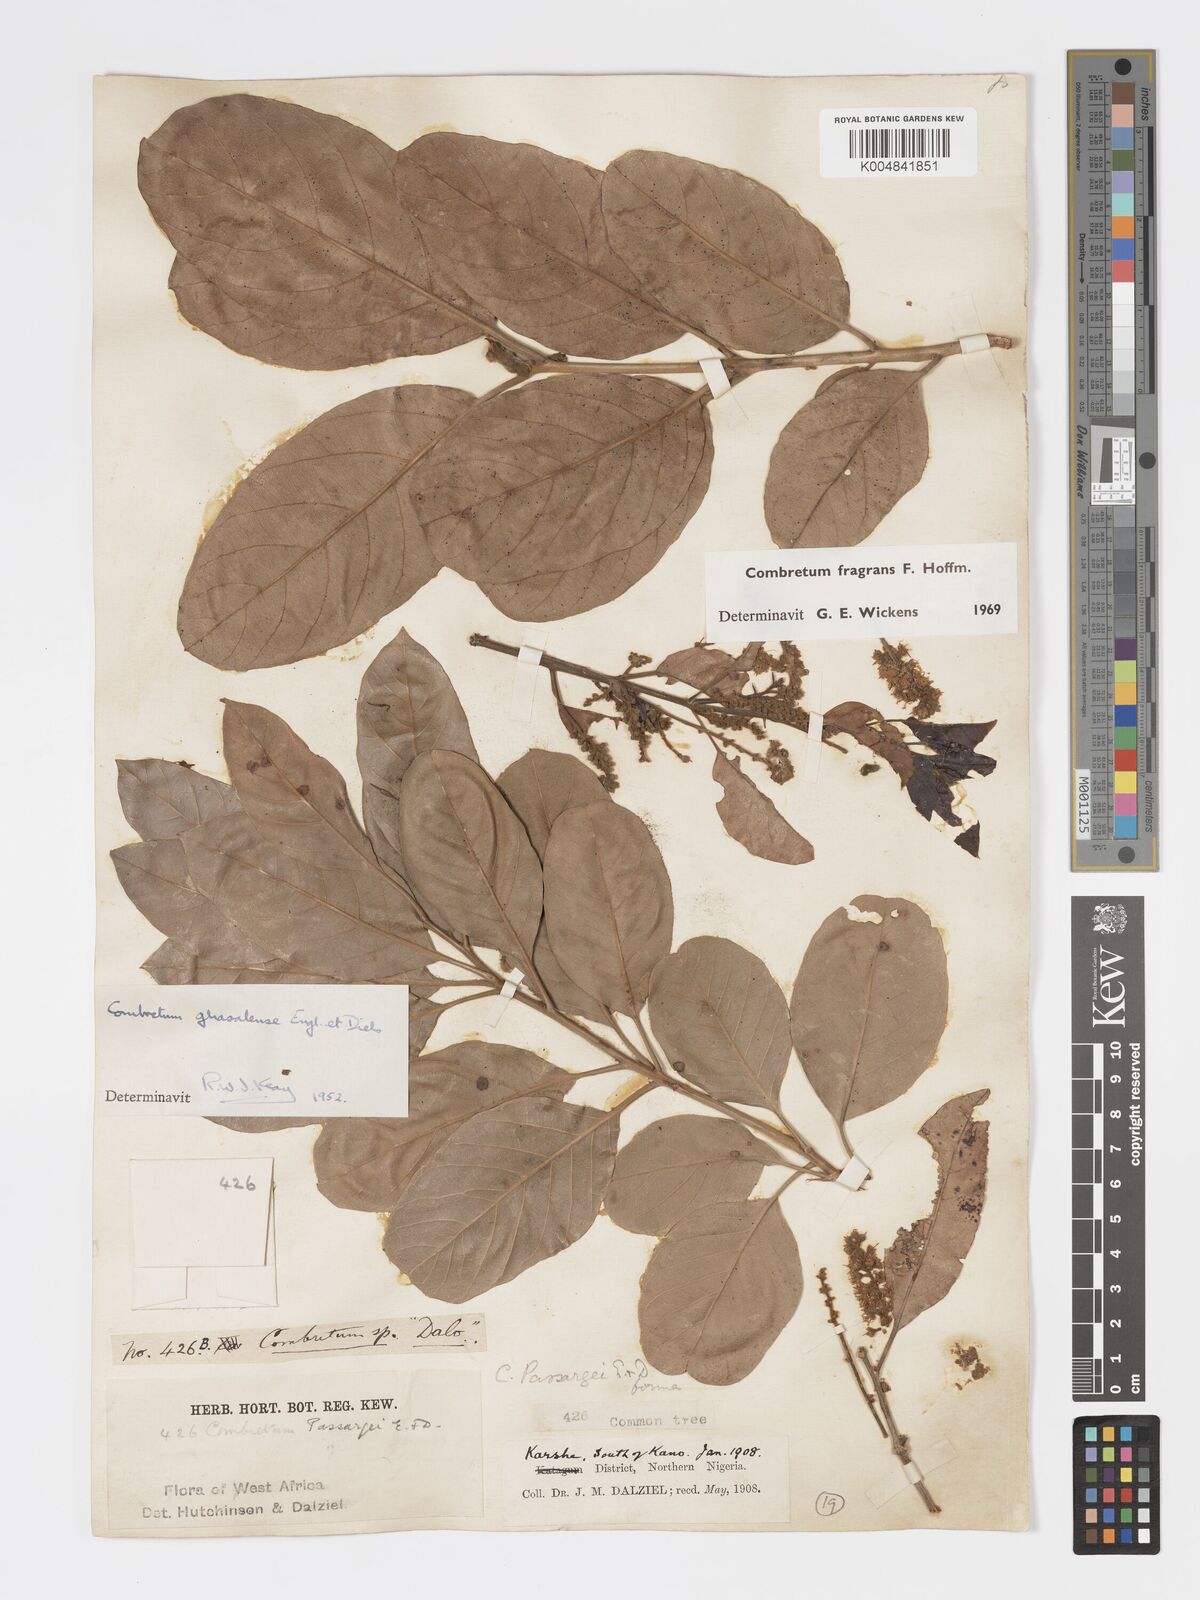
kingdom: Plantae
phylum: Tracheophyta
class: Magnoliopsida
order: Myrtales
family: Combretaceae
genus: Combretum
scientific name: Combretum adenogonium
